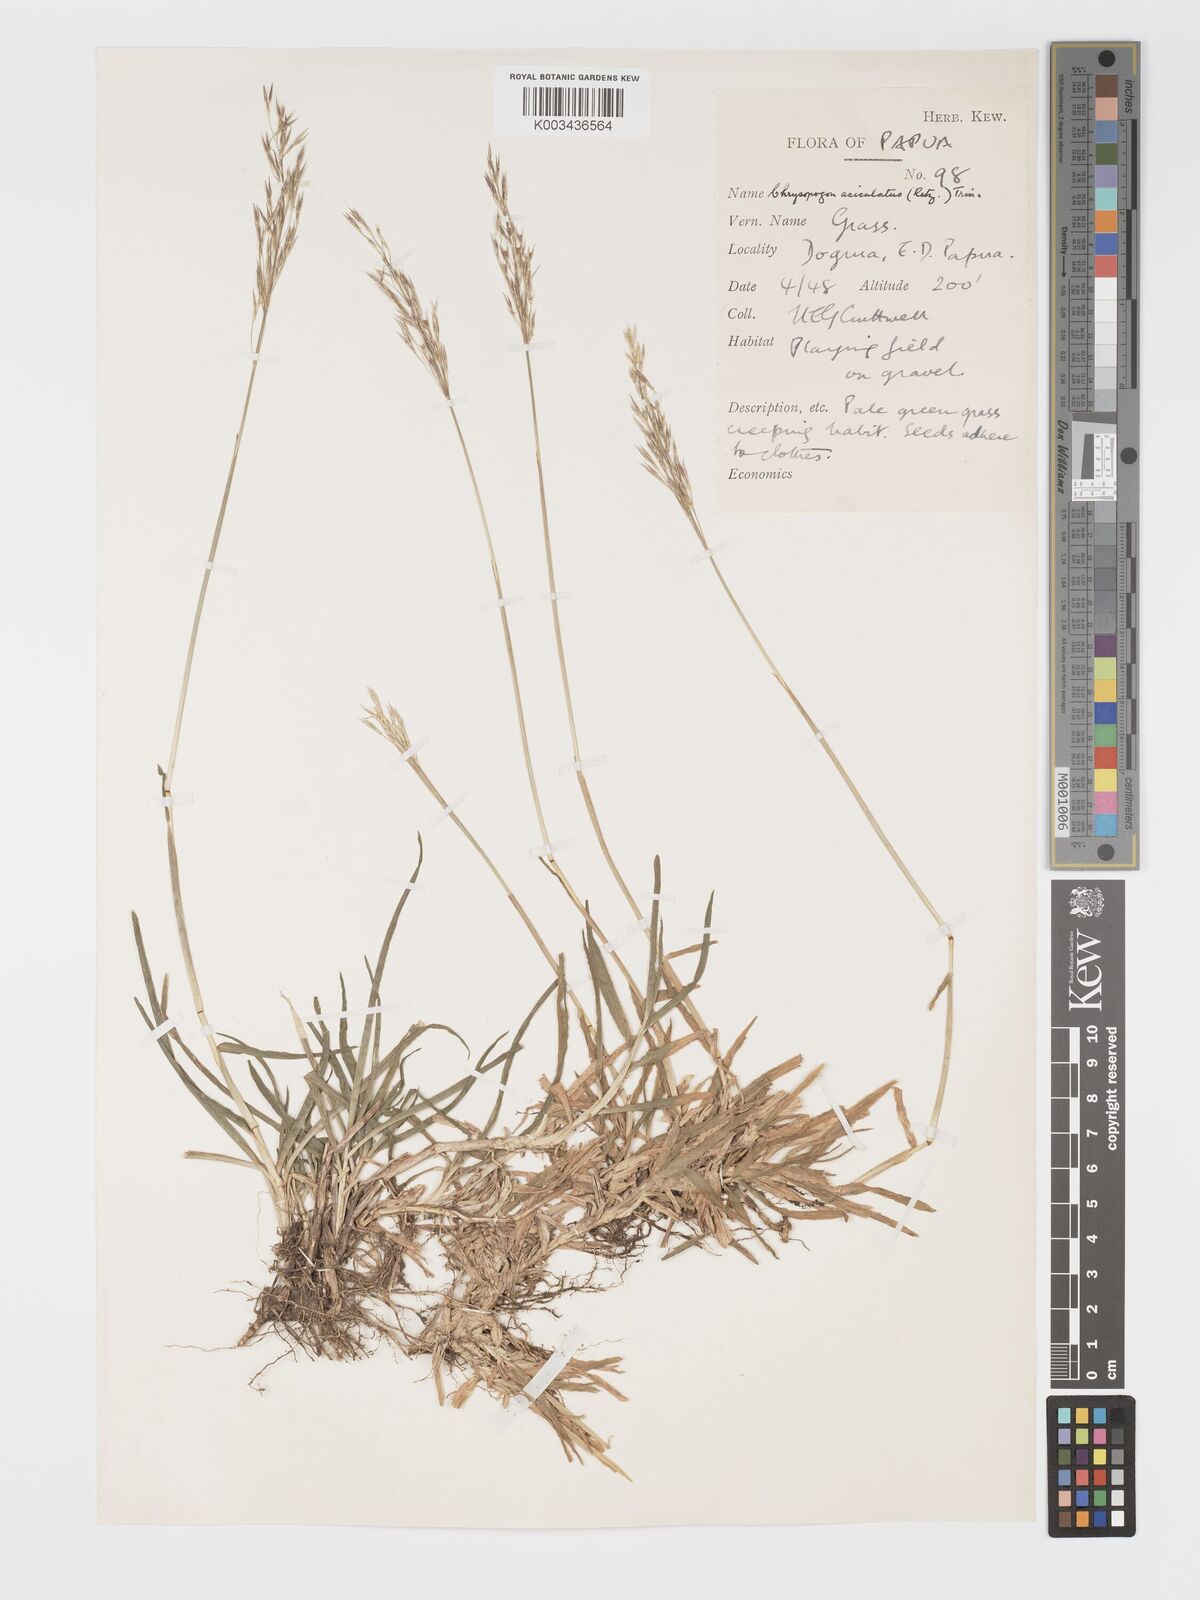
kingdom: Plantae
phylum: Tracheophyta
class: Liliopsida
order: Poales
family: Poaceae
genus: Chrysopogon
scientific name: Chrysopogon aciculatus
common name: Pilipiliula
